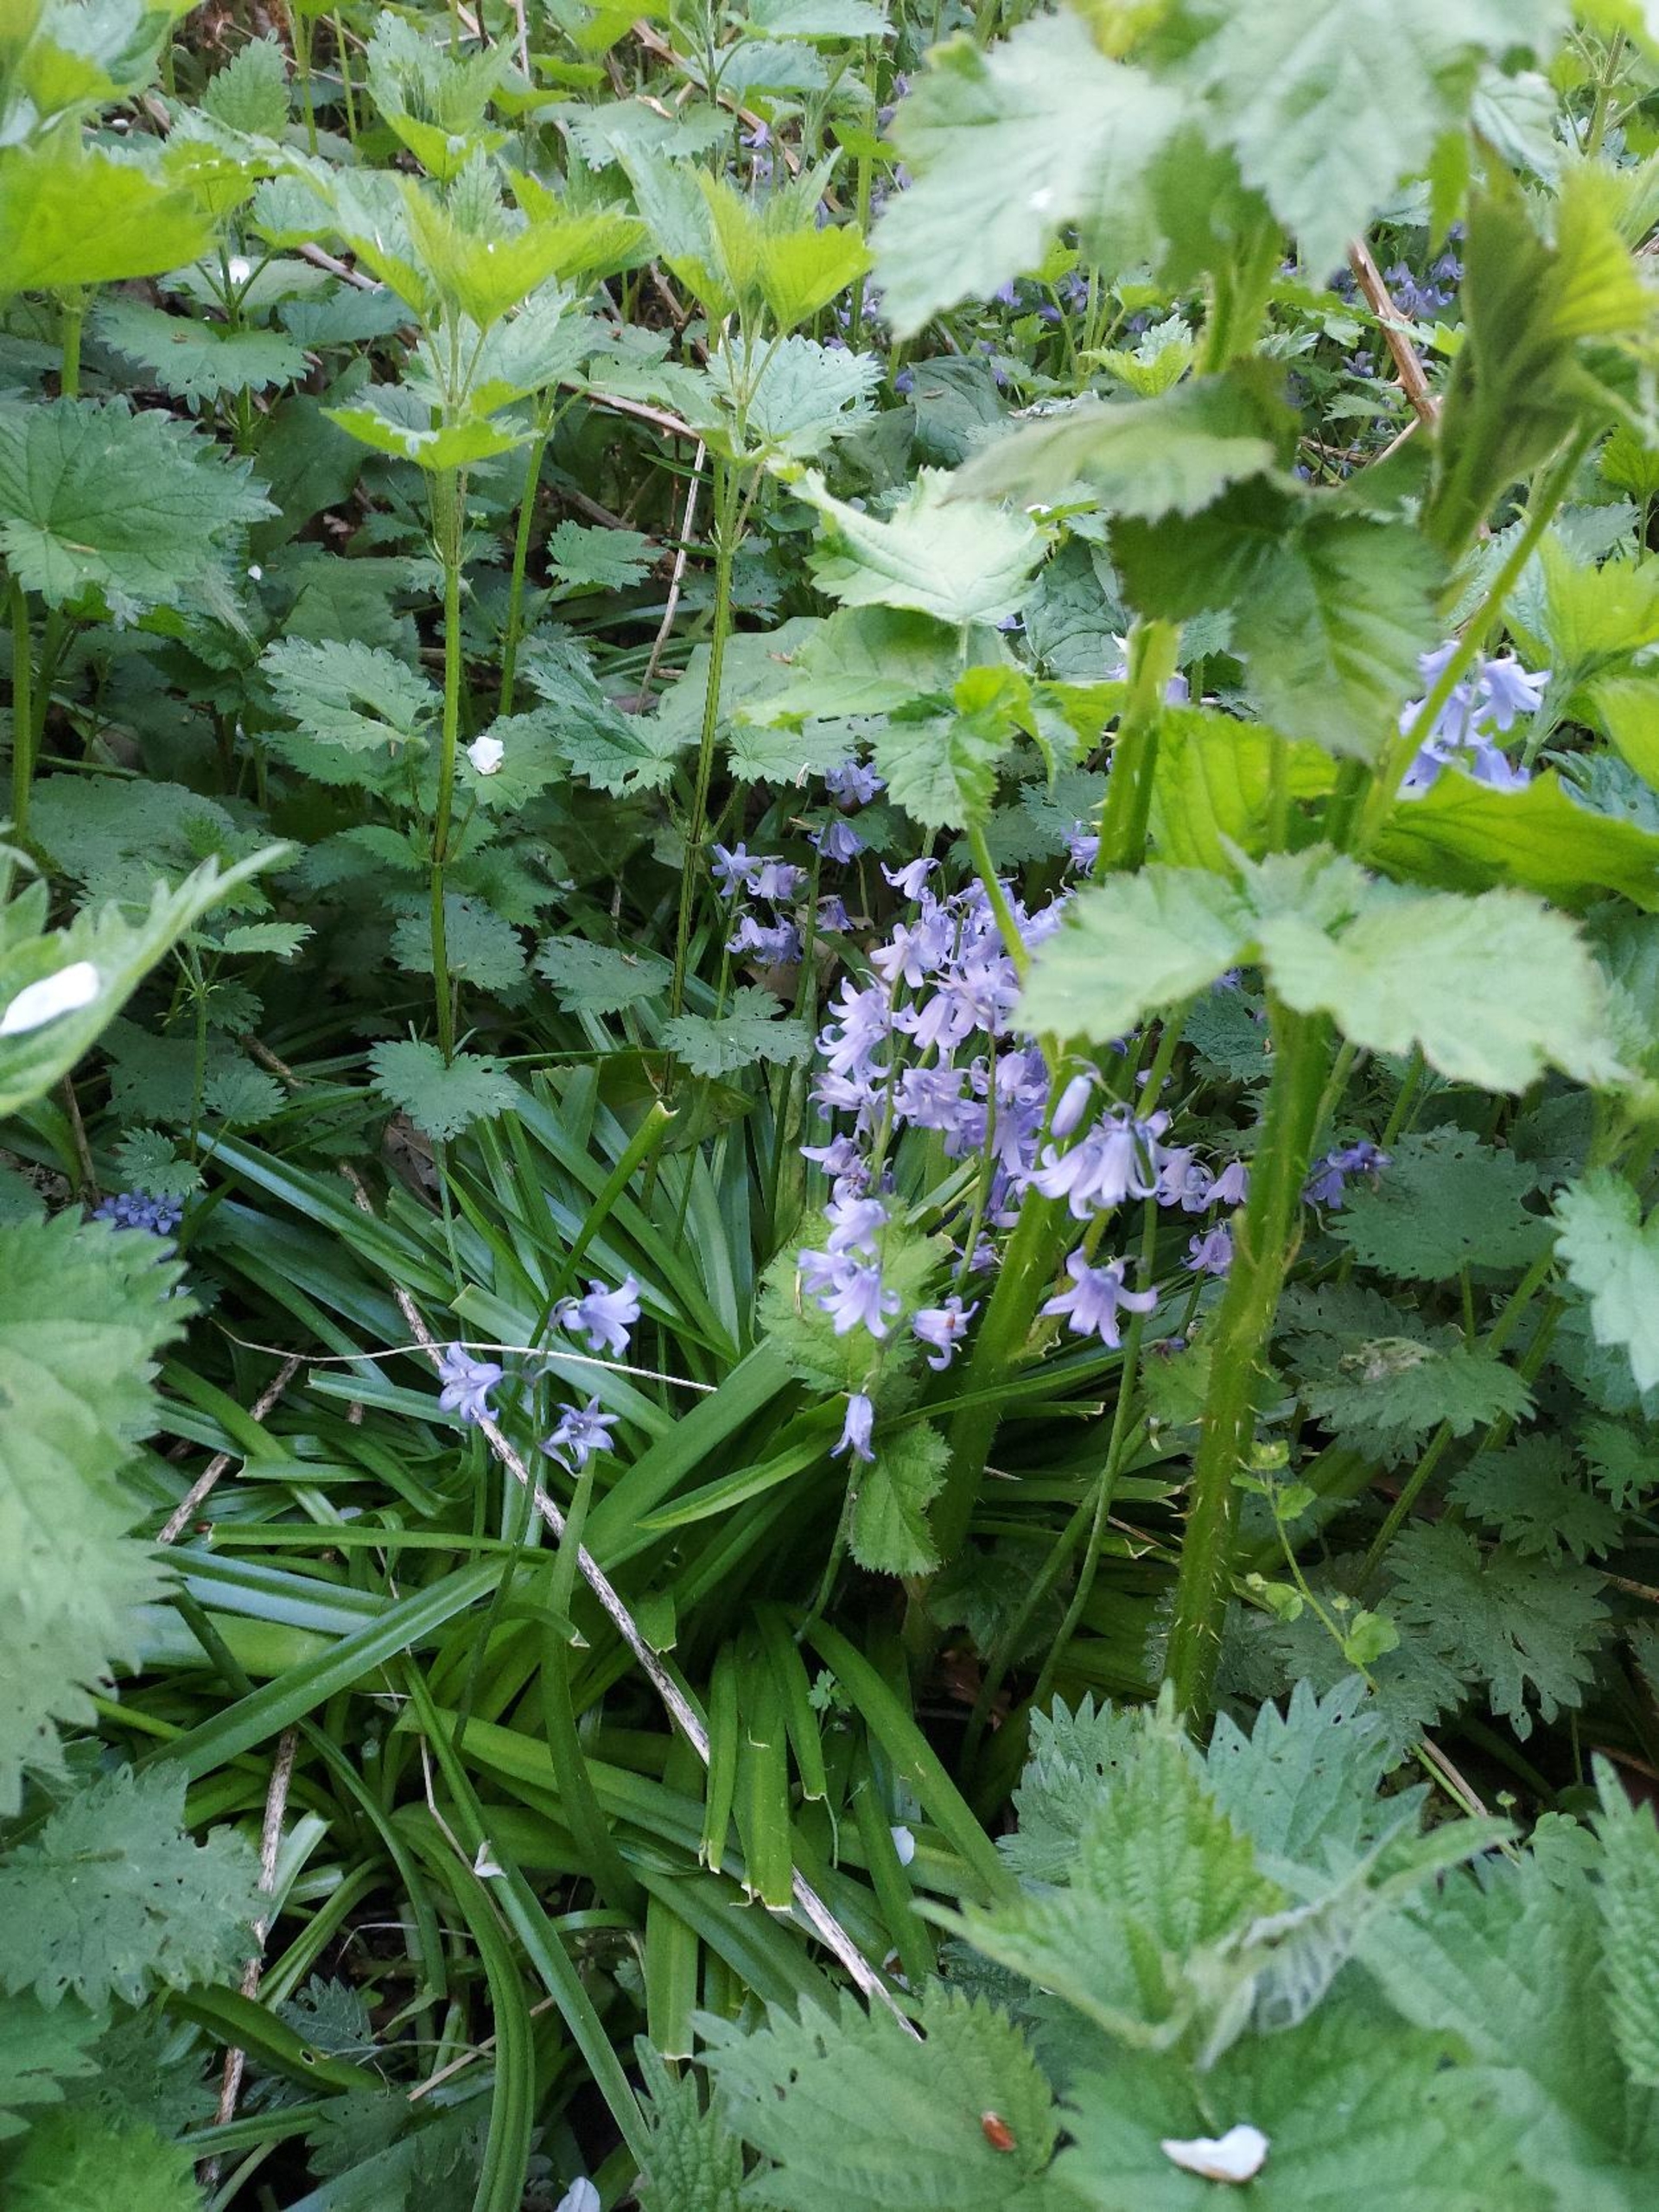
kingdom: Plantae
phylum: Tracheophyta
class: Liliopsida
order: Asparagales
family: Asparagaceae
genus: Hyacinthoides
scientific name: Hyacinthoides massartiana
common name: Hybrid-klokkeskilla
